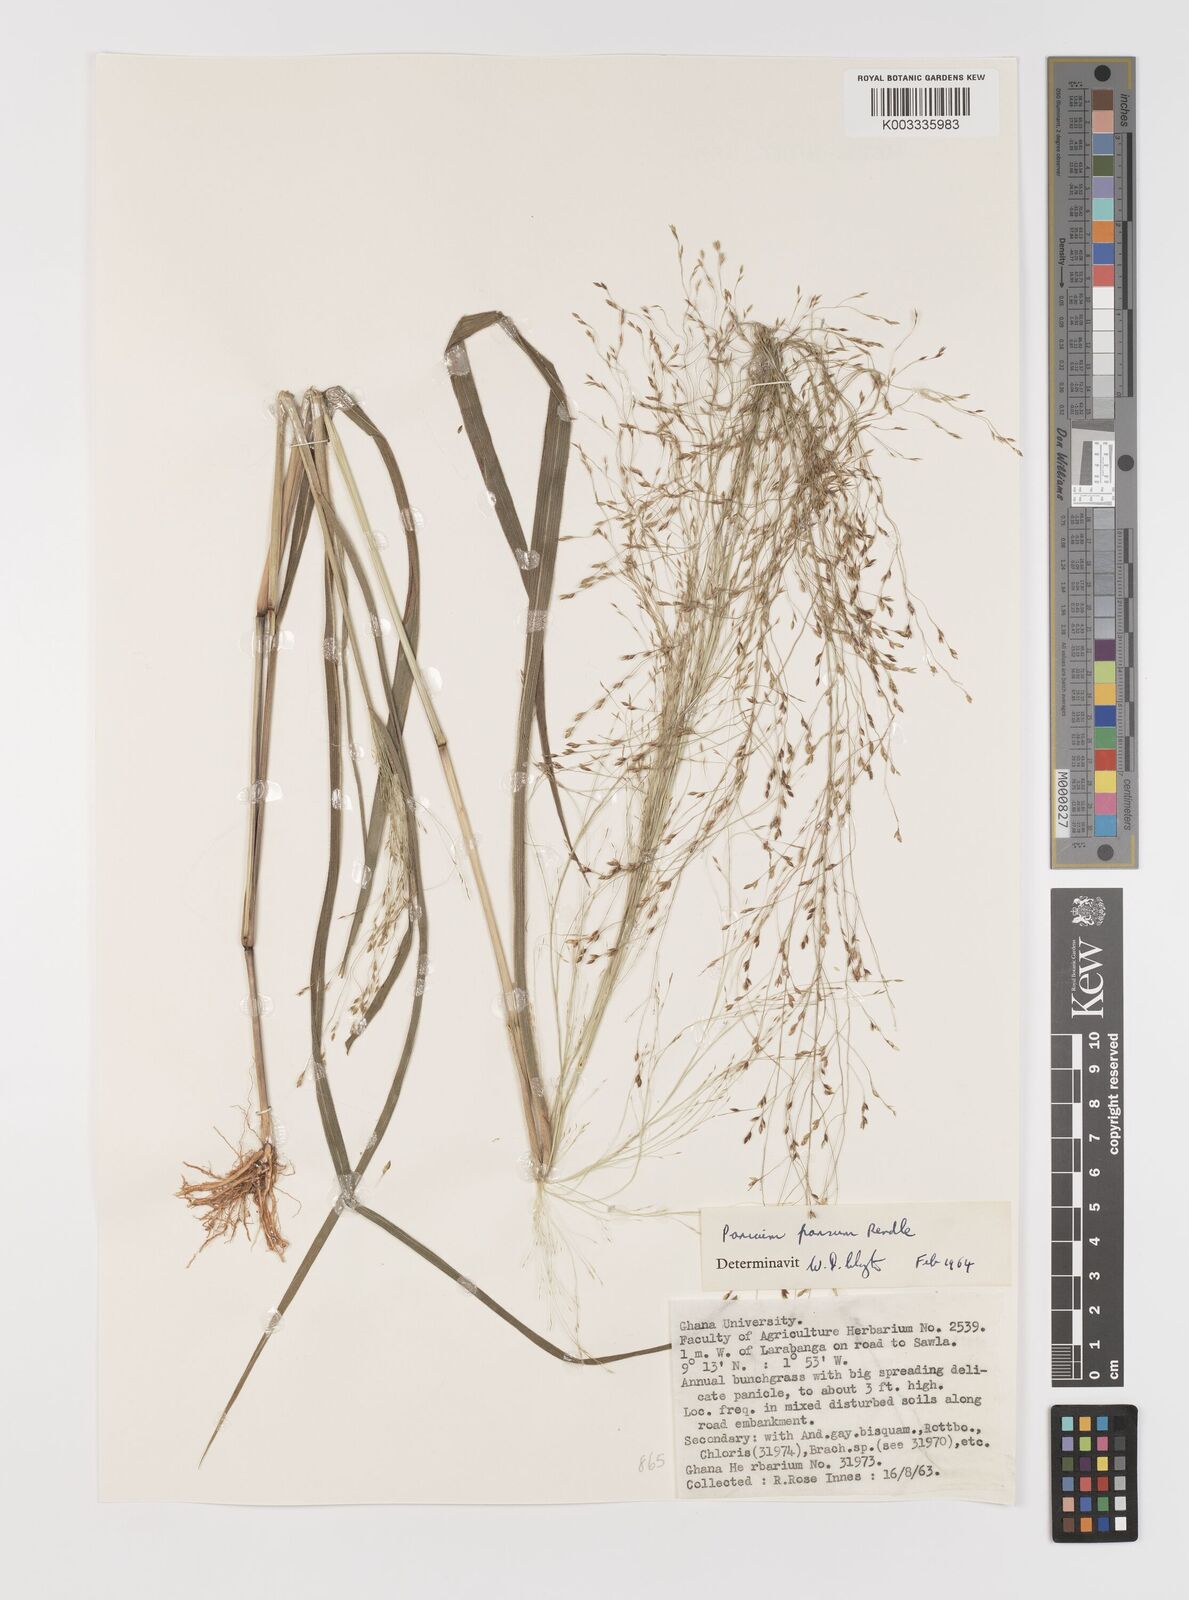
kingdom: Plantae
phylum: Tracheophyta
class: Liliopsida
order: Poales
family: Poaceae
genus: Panicum
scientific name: Panicum pansum
